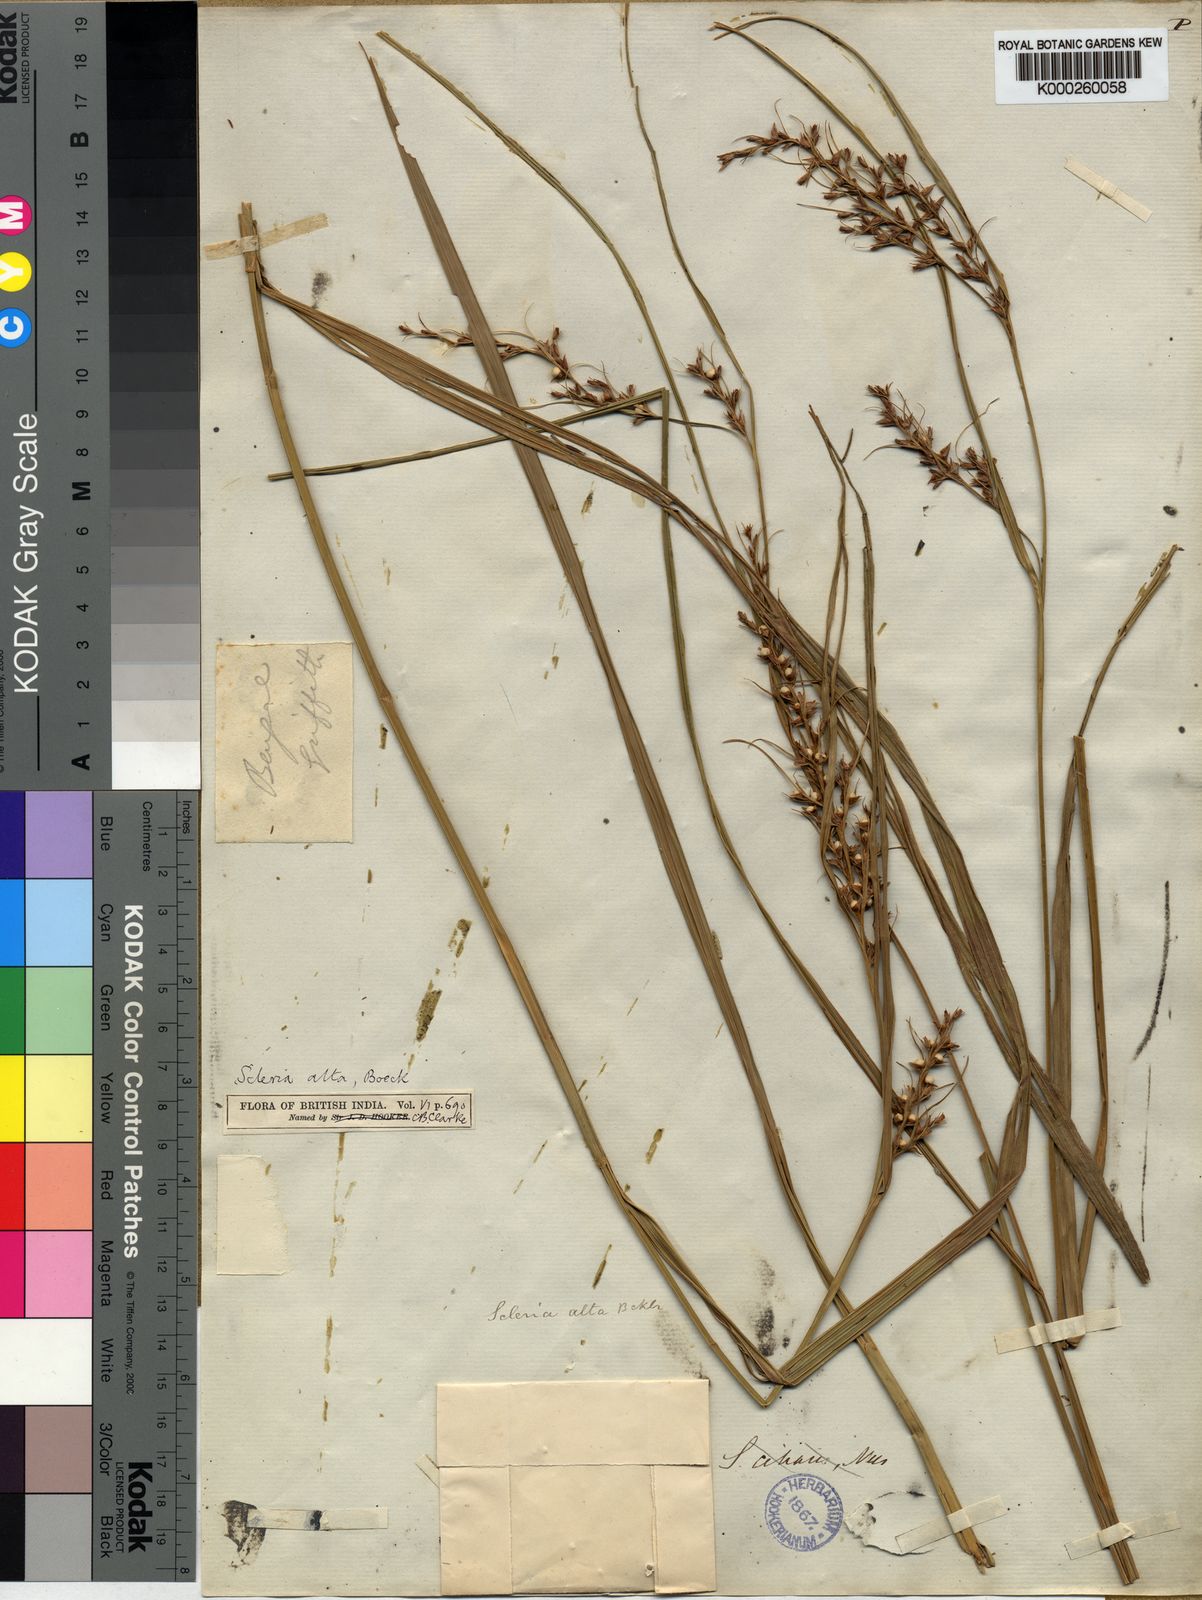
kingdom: Plantae
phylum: Tracheophyta
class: Liliopsida
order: Poales
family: Cyperaceae
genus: Scleria
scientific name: Scleria levis
